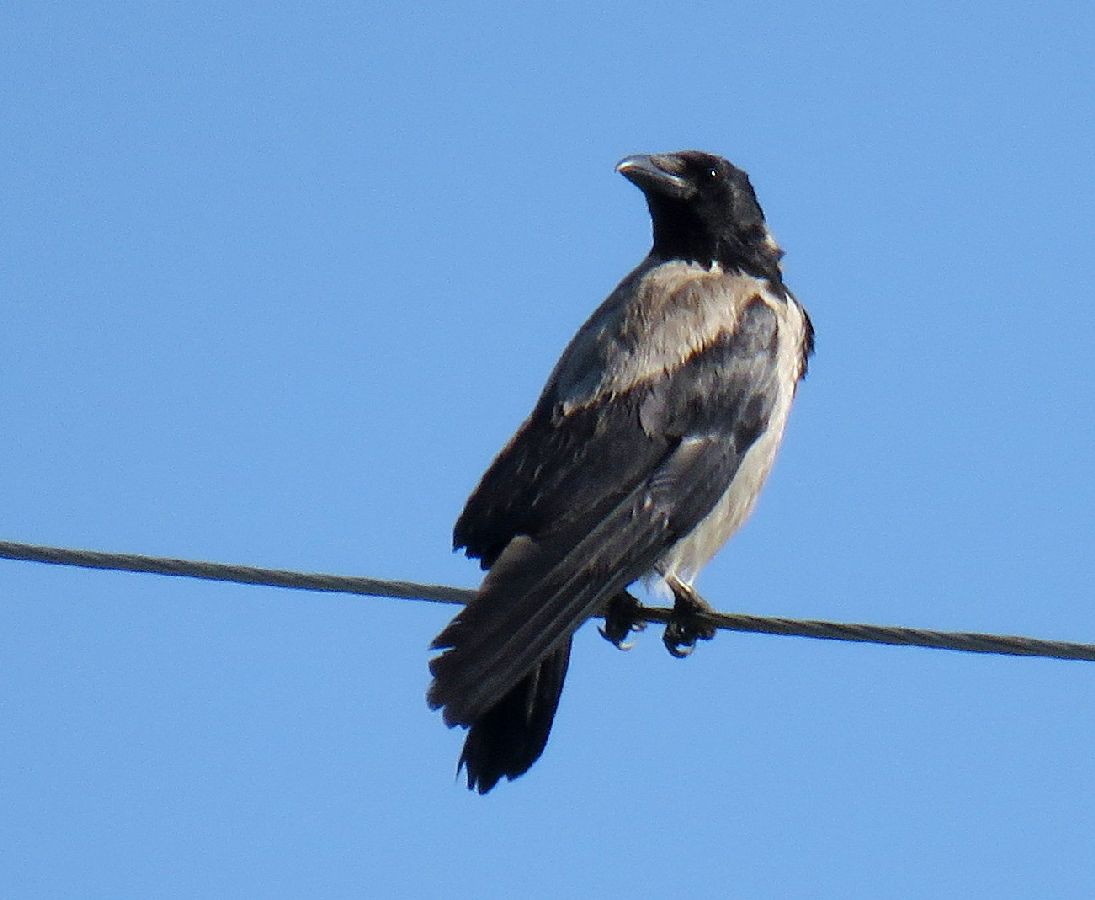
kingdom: Animalia
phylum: Chordata
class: Aves
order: Passeriformes
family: Corvidae
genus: Corvus
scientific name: Corvus cornix
